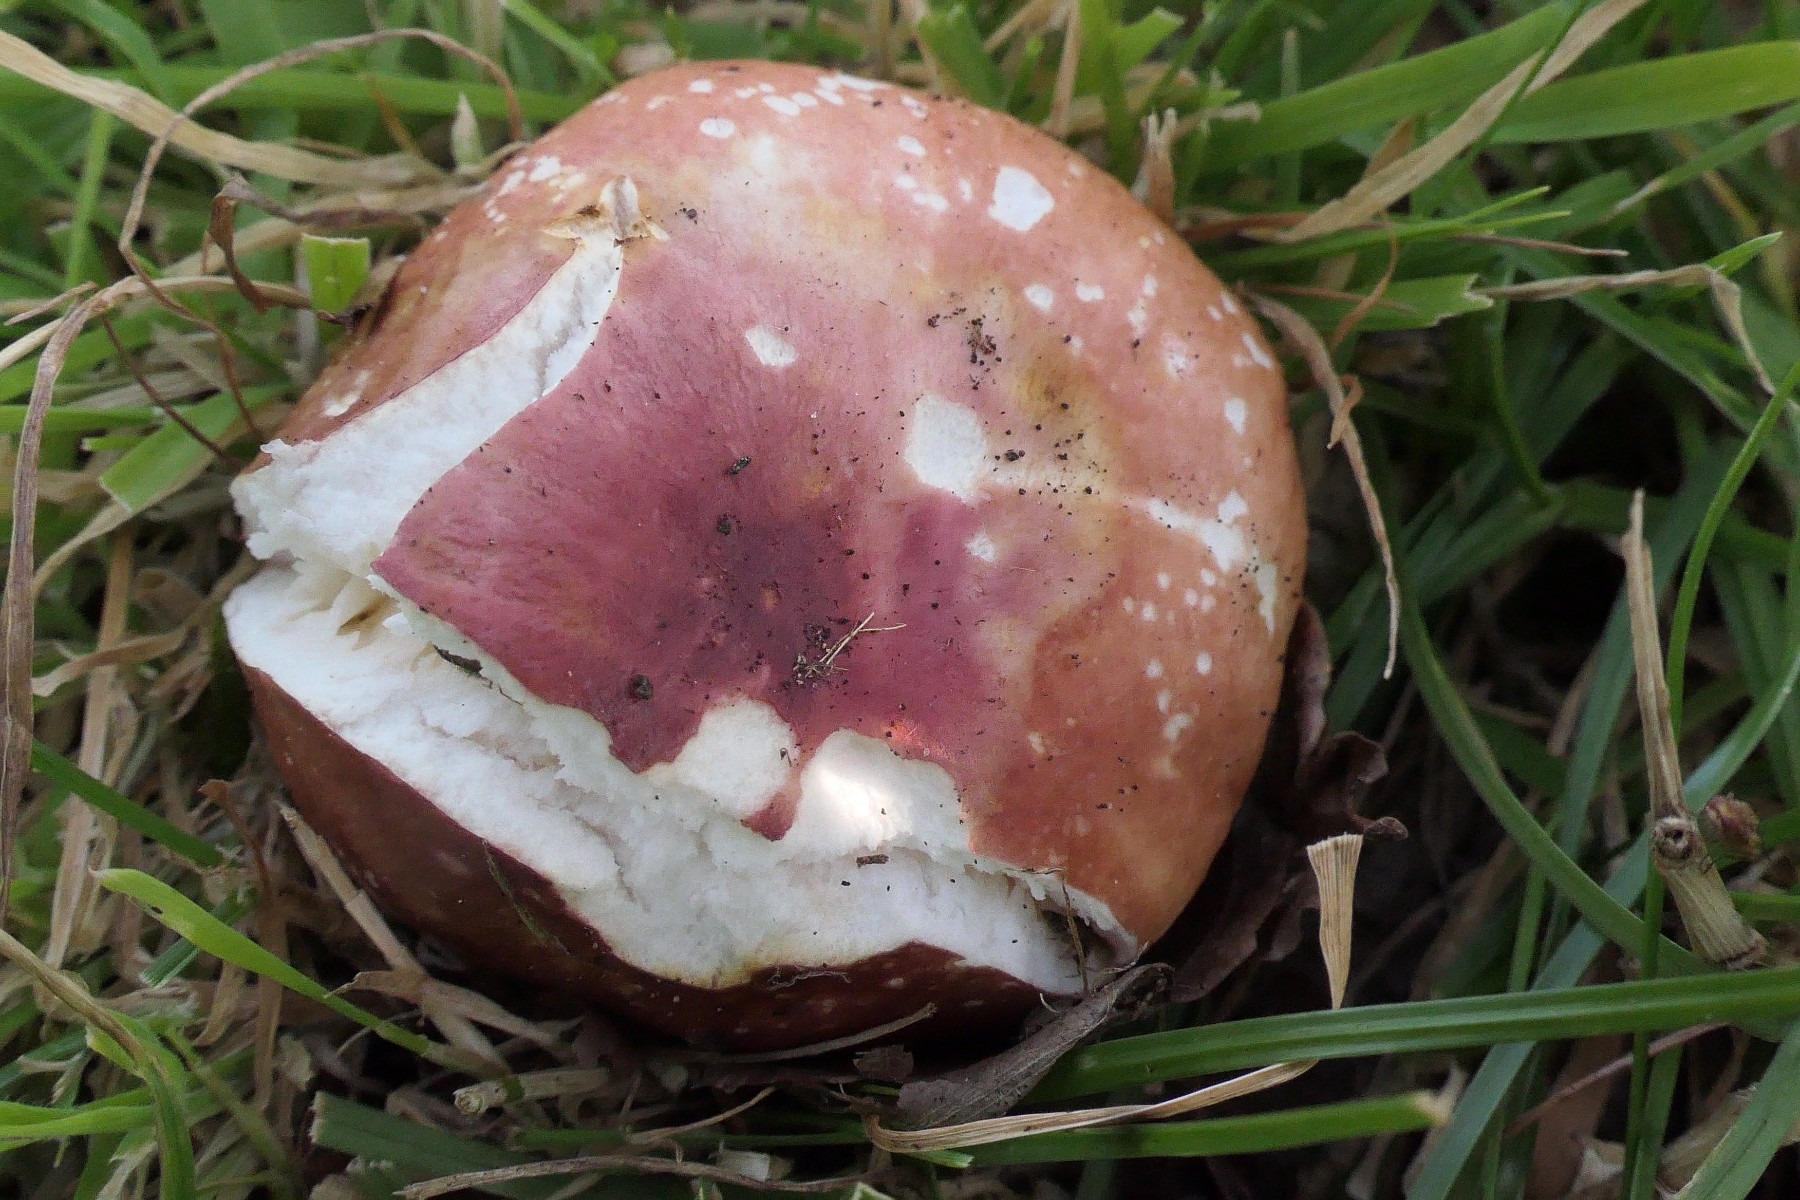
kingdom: Fungi
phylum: Basidiomycota
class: Agaricomycetes
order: Russulales
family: Russulaceae
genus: Russula
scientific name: Russula fontqueri
